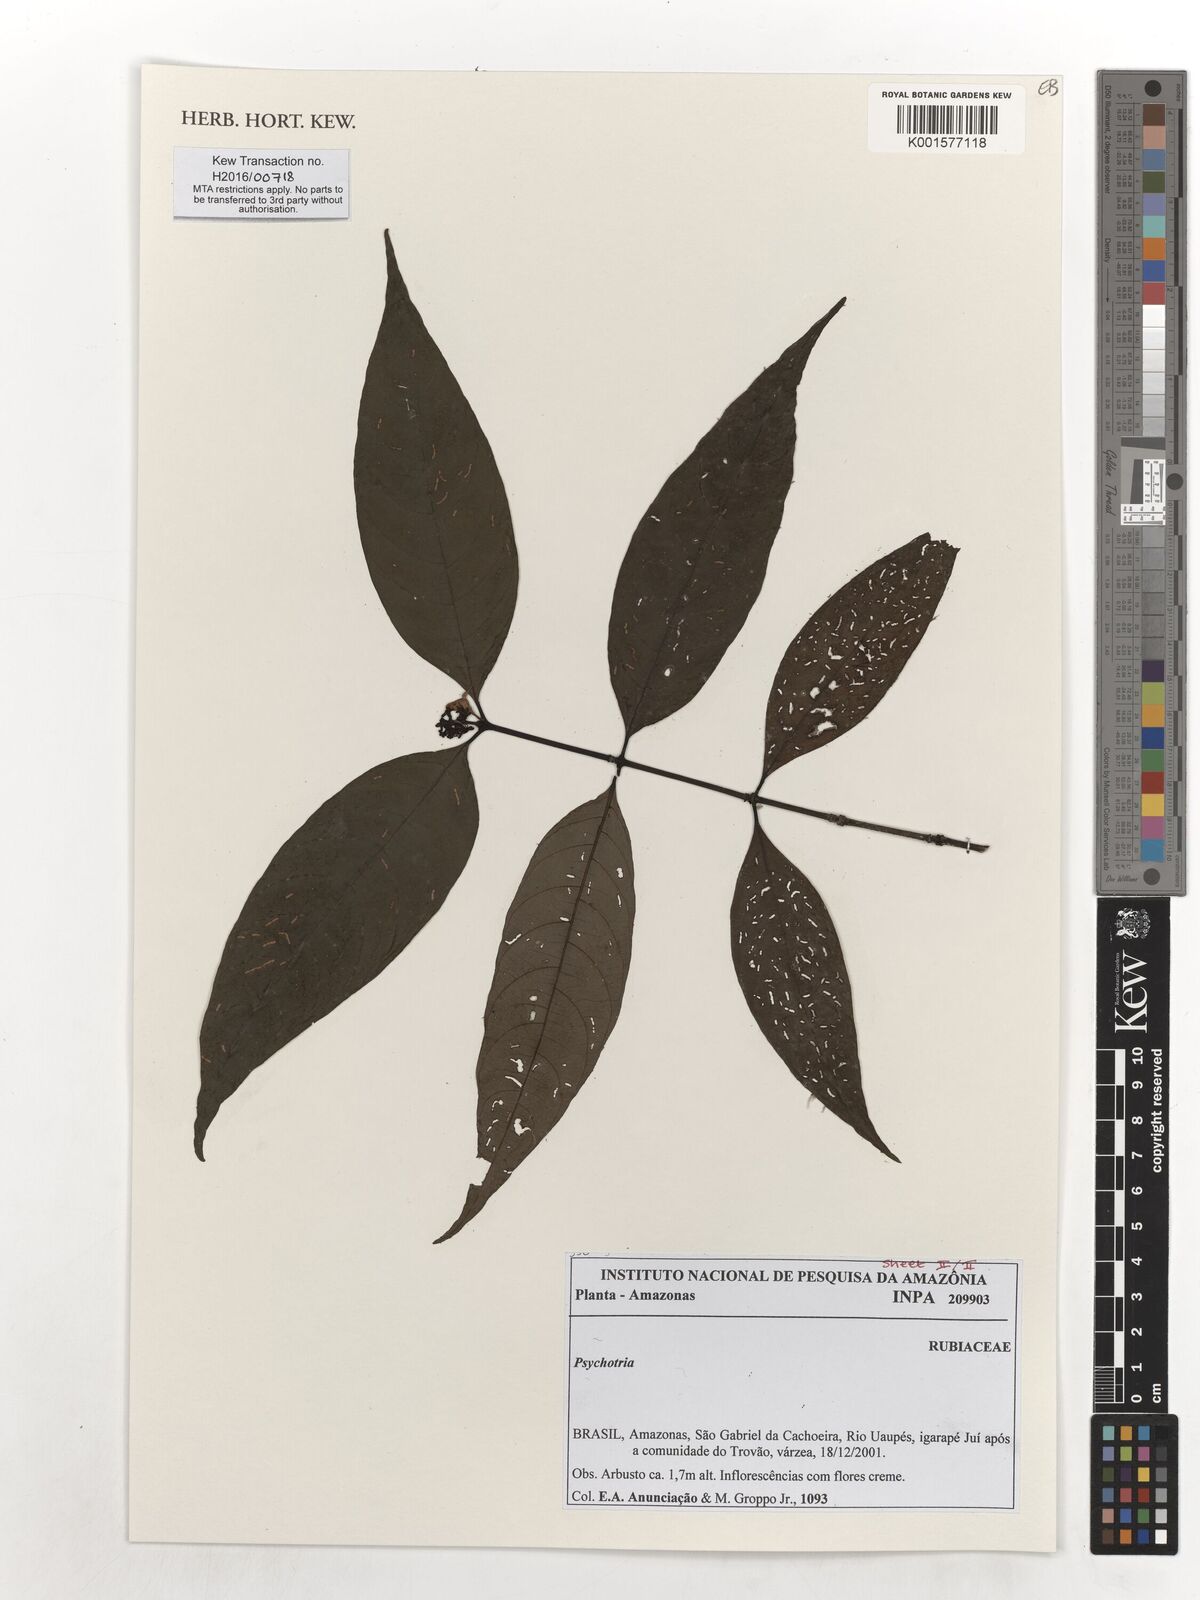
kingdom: Plantae
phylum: Tracheophyta
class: Magnoliopsida
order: Gentianales
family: Rubiaceae
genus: Psychotria
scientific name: Psychotria
